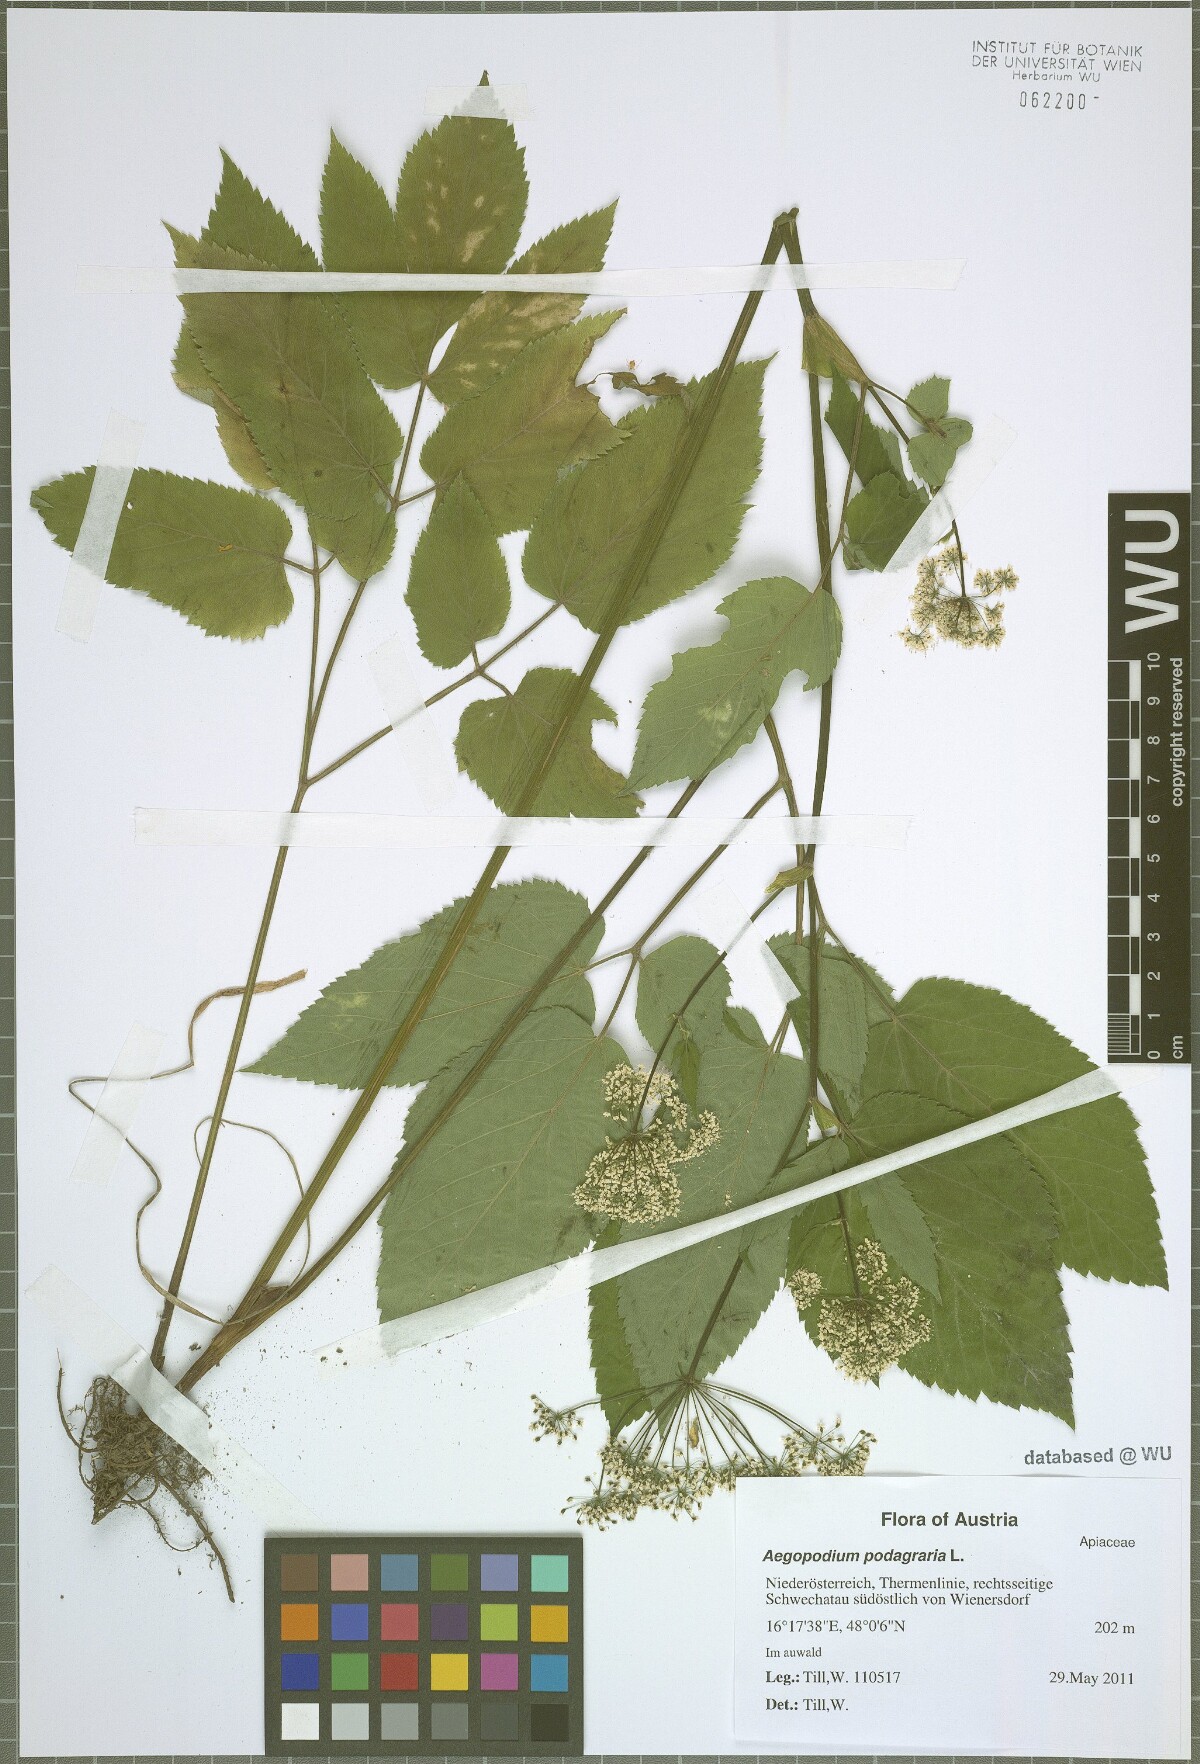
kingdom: Plantae
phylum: Tracheophyta
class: Magnoliopsida
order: Apiales
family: Apiaceae
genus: Aegopodium
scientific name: Aegopodium podagraria
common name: Ground-elder
